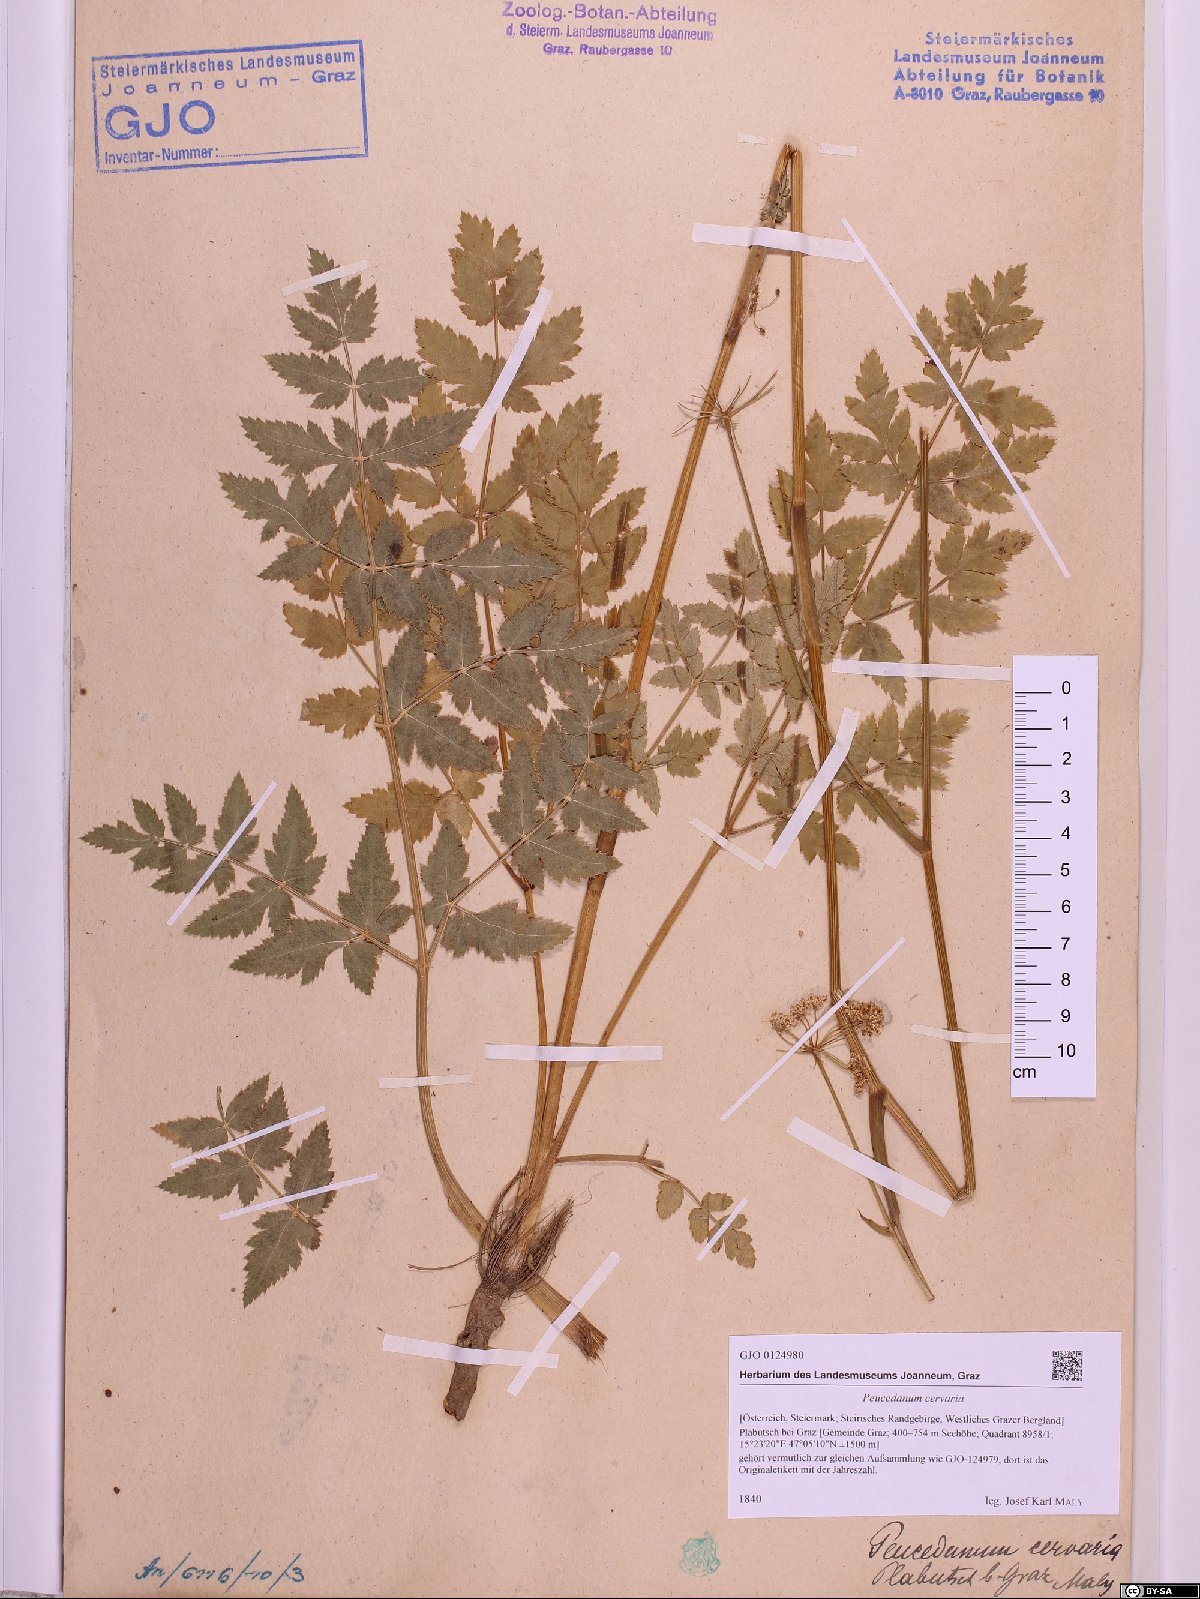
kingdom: Plantae
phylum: Tracheophyta
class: Magnoliopsida
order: Apiales
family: Apiaceae
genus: Cervaria
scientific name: Cervaria rivini
